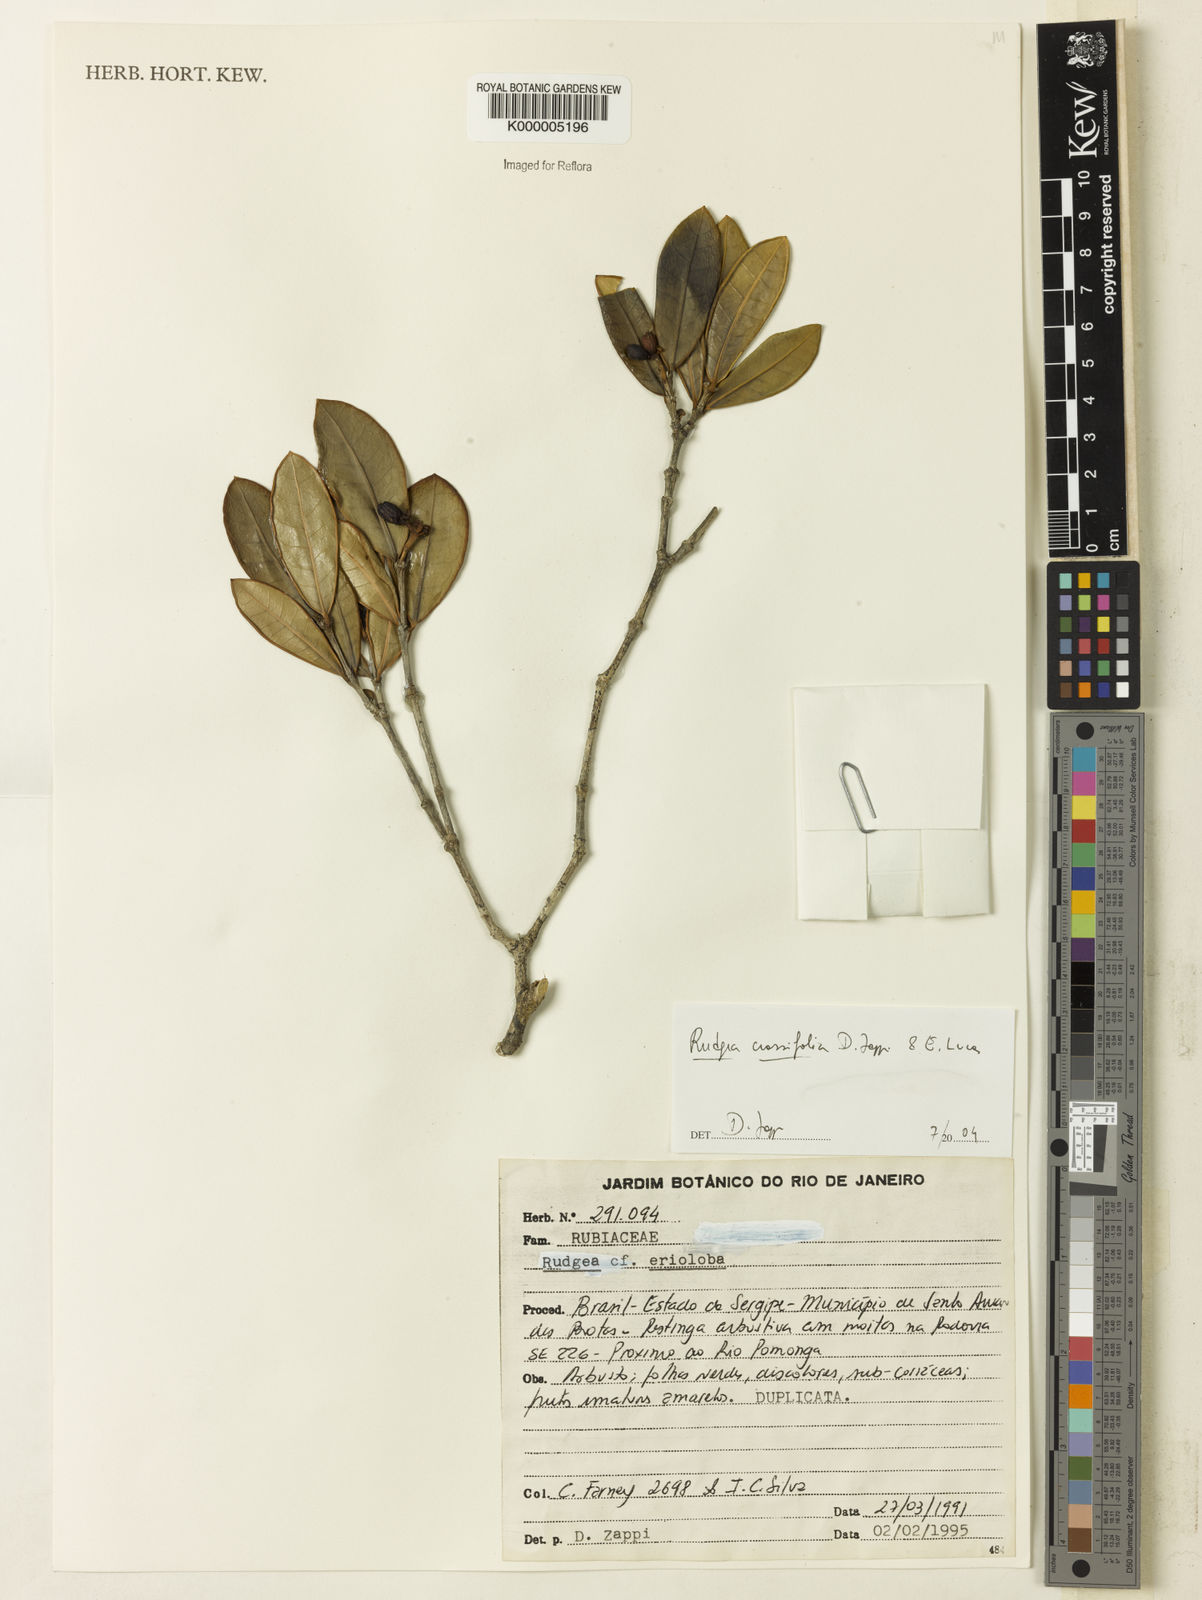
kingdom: Plantae
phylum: Tracheophyta
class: Magnoliopsida
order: Gentianales
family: Rubiaceae
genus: Rudgea
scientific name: Rudgea crassifolia
